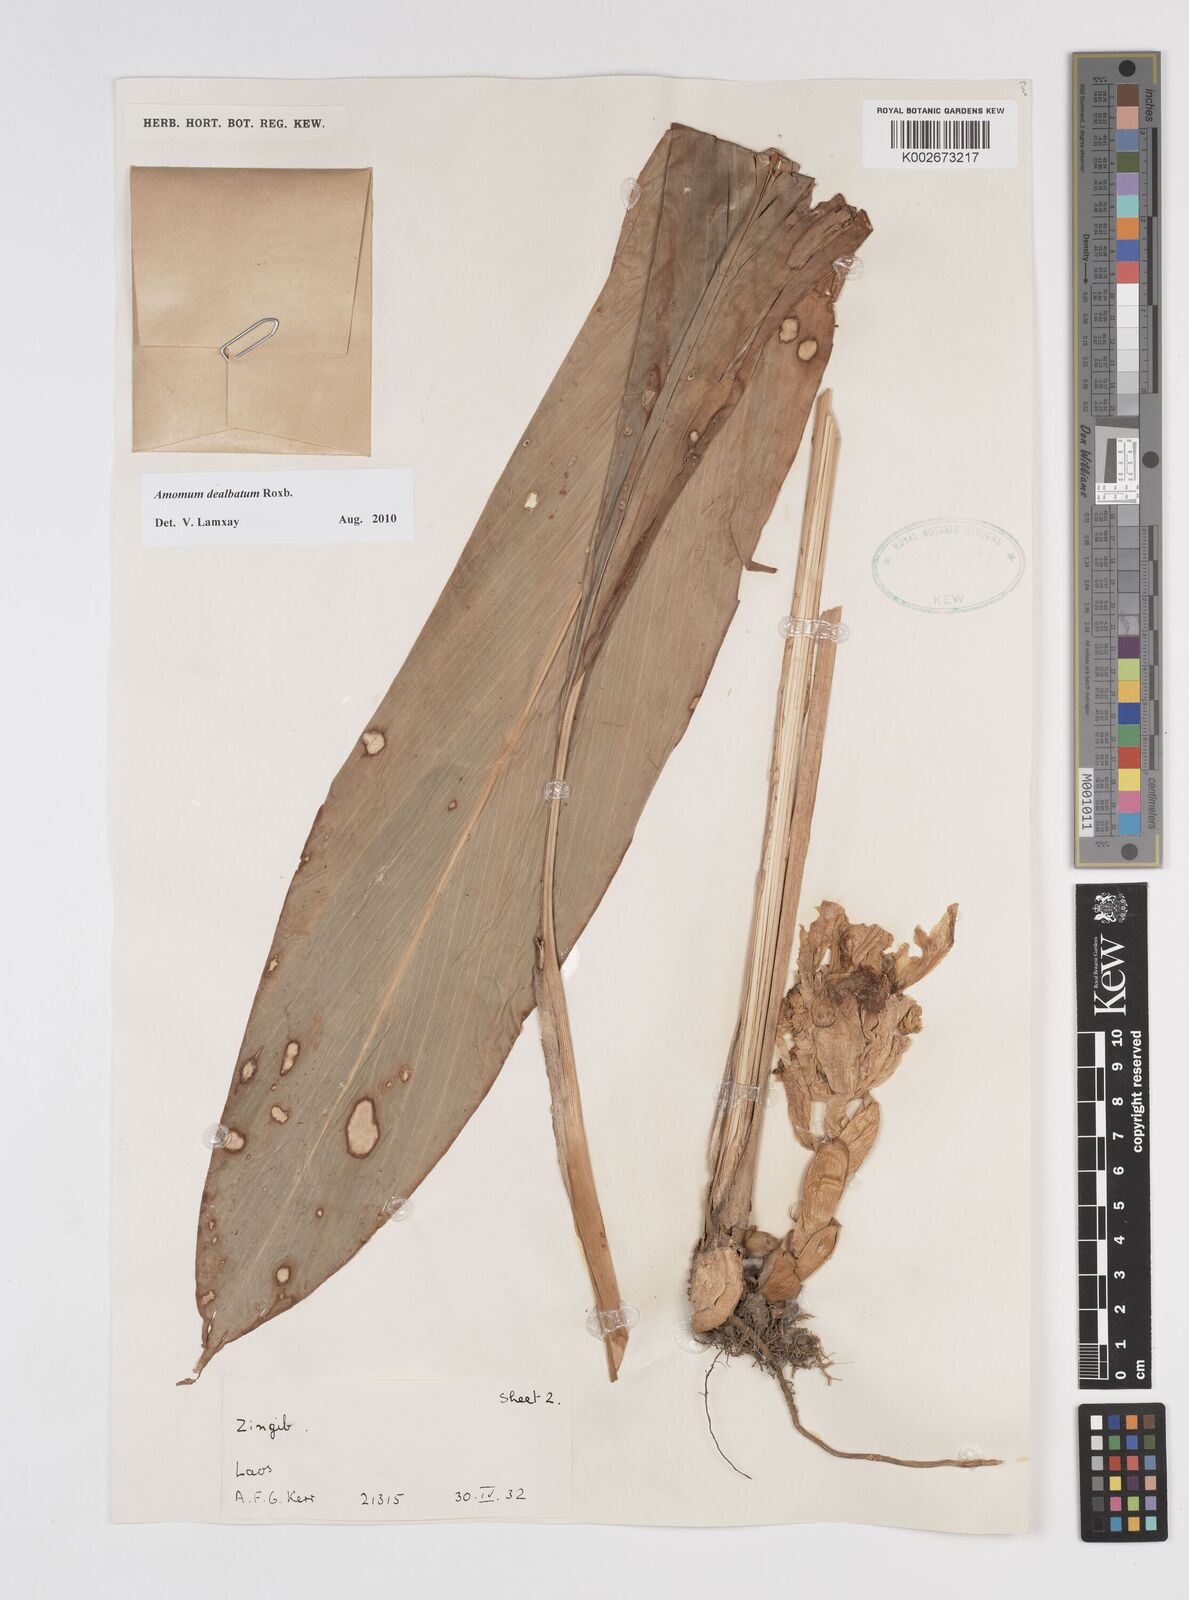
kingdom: Plantae
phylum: Tracheophyta
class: Liliopsida
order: Zingiberales
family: Zingiberaceae
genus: Amomum
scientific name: Amomum dealbatum
